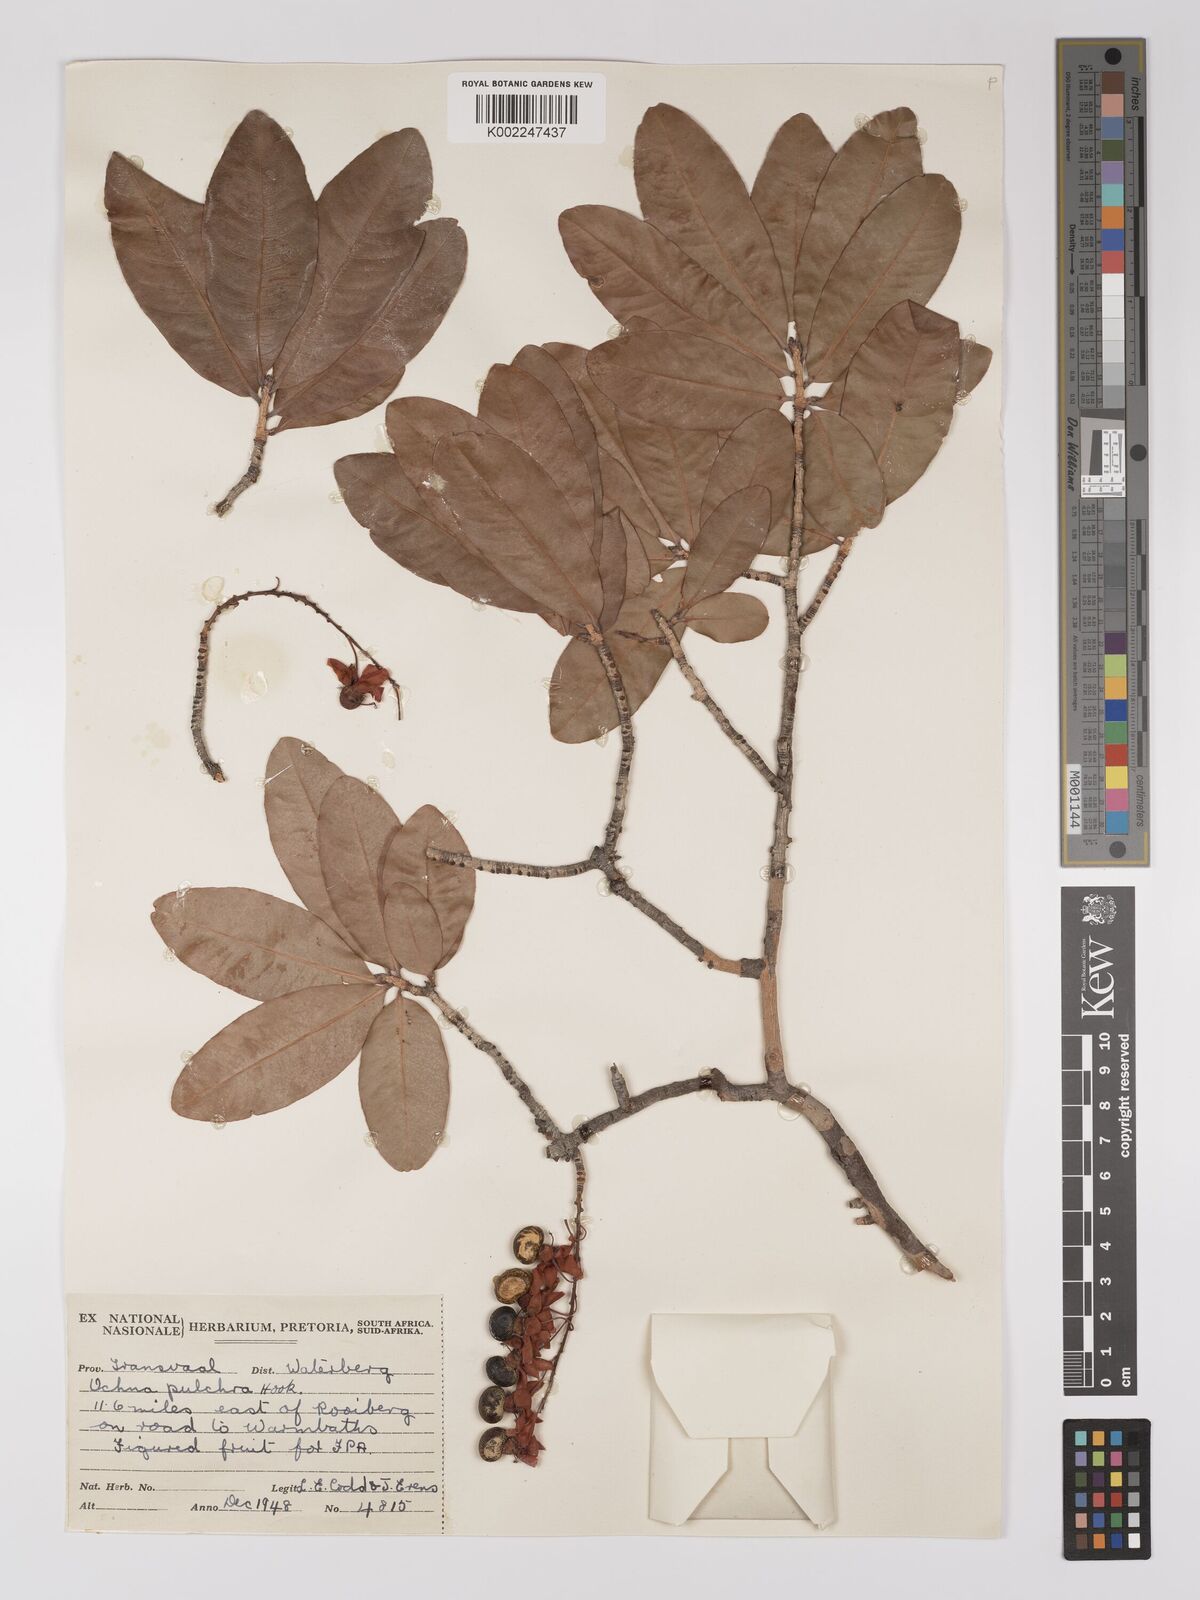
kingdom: Plantae
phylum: Tracheophyta
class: Magnoliopsida
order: Malpighiales
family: Ochnaceae
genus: Ochna
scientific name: Ochna pulchra
